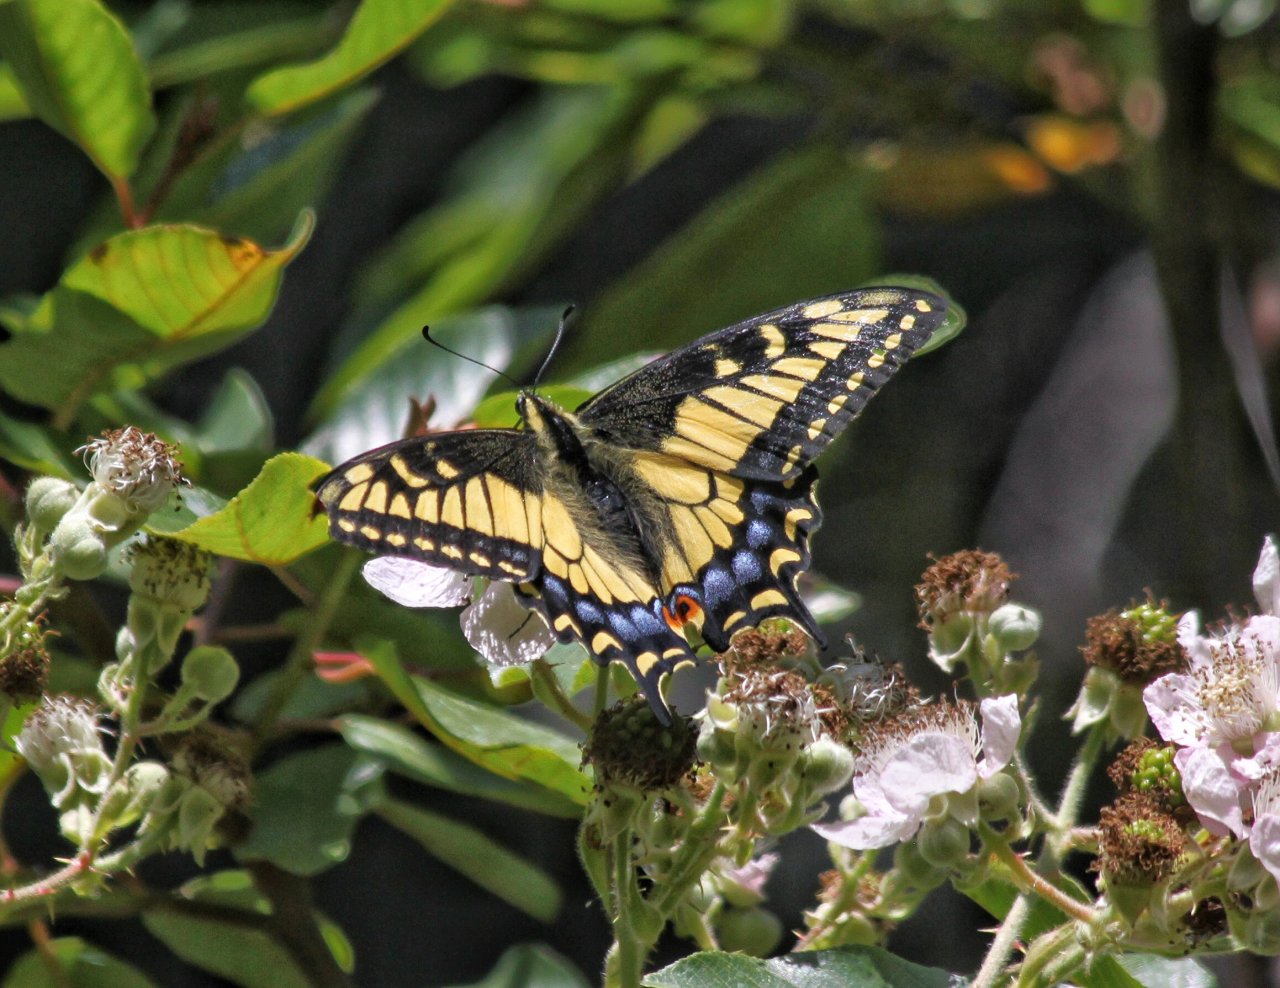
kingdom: Animalia
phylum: Arthropoda
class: Insecta
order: Lepidoptera
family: Papilionidae
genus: Papilio
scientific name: Papilio zelicaon
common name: Anise Swallowtail
